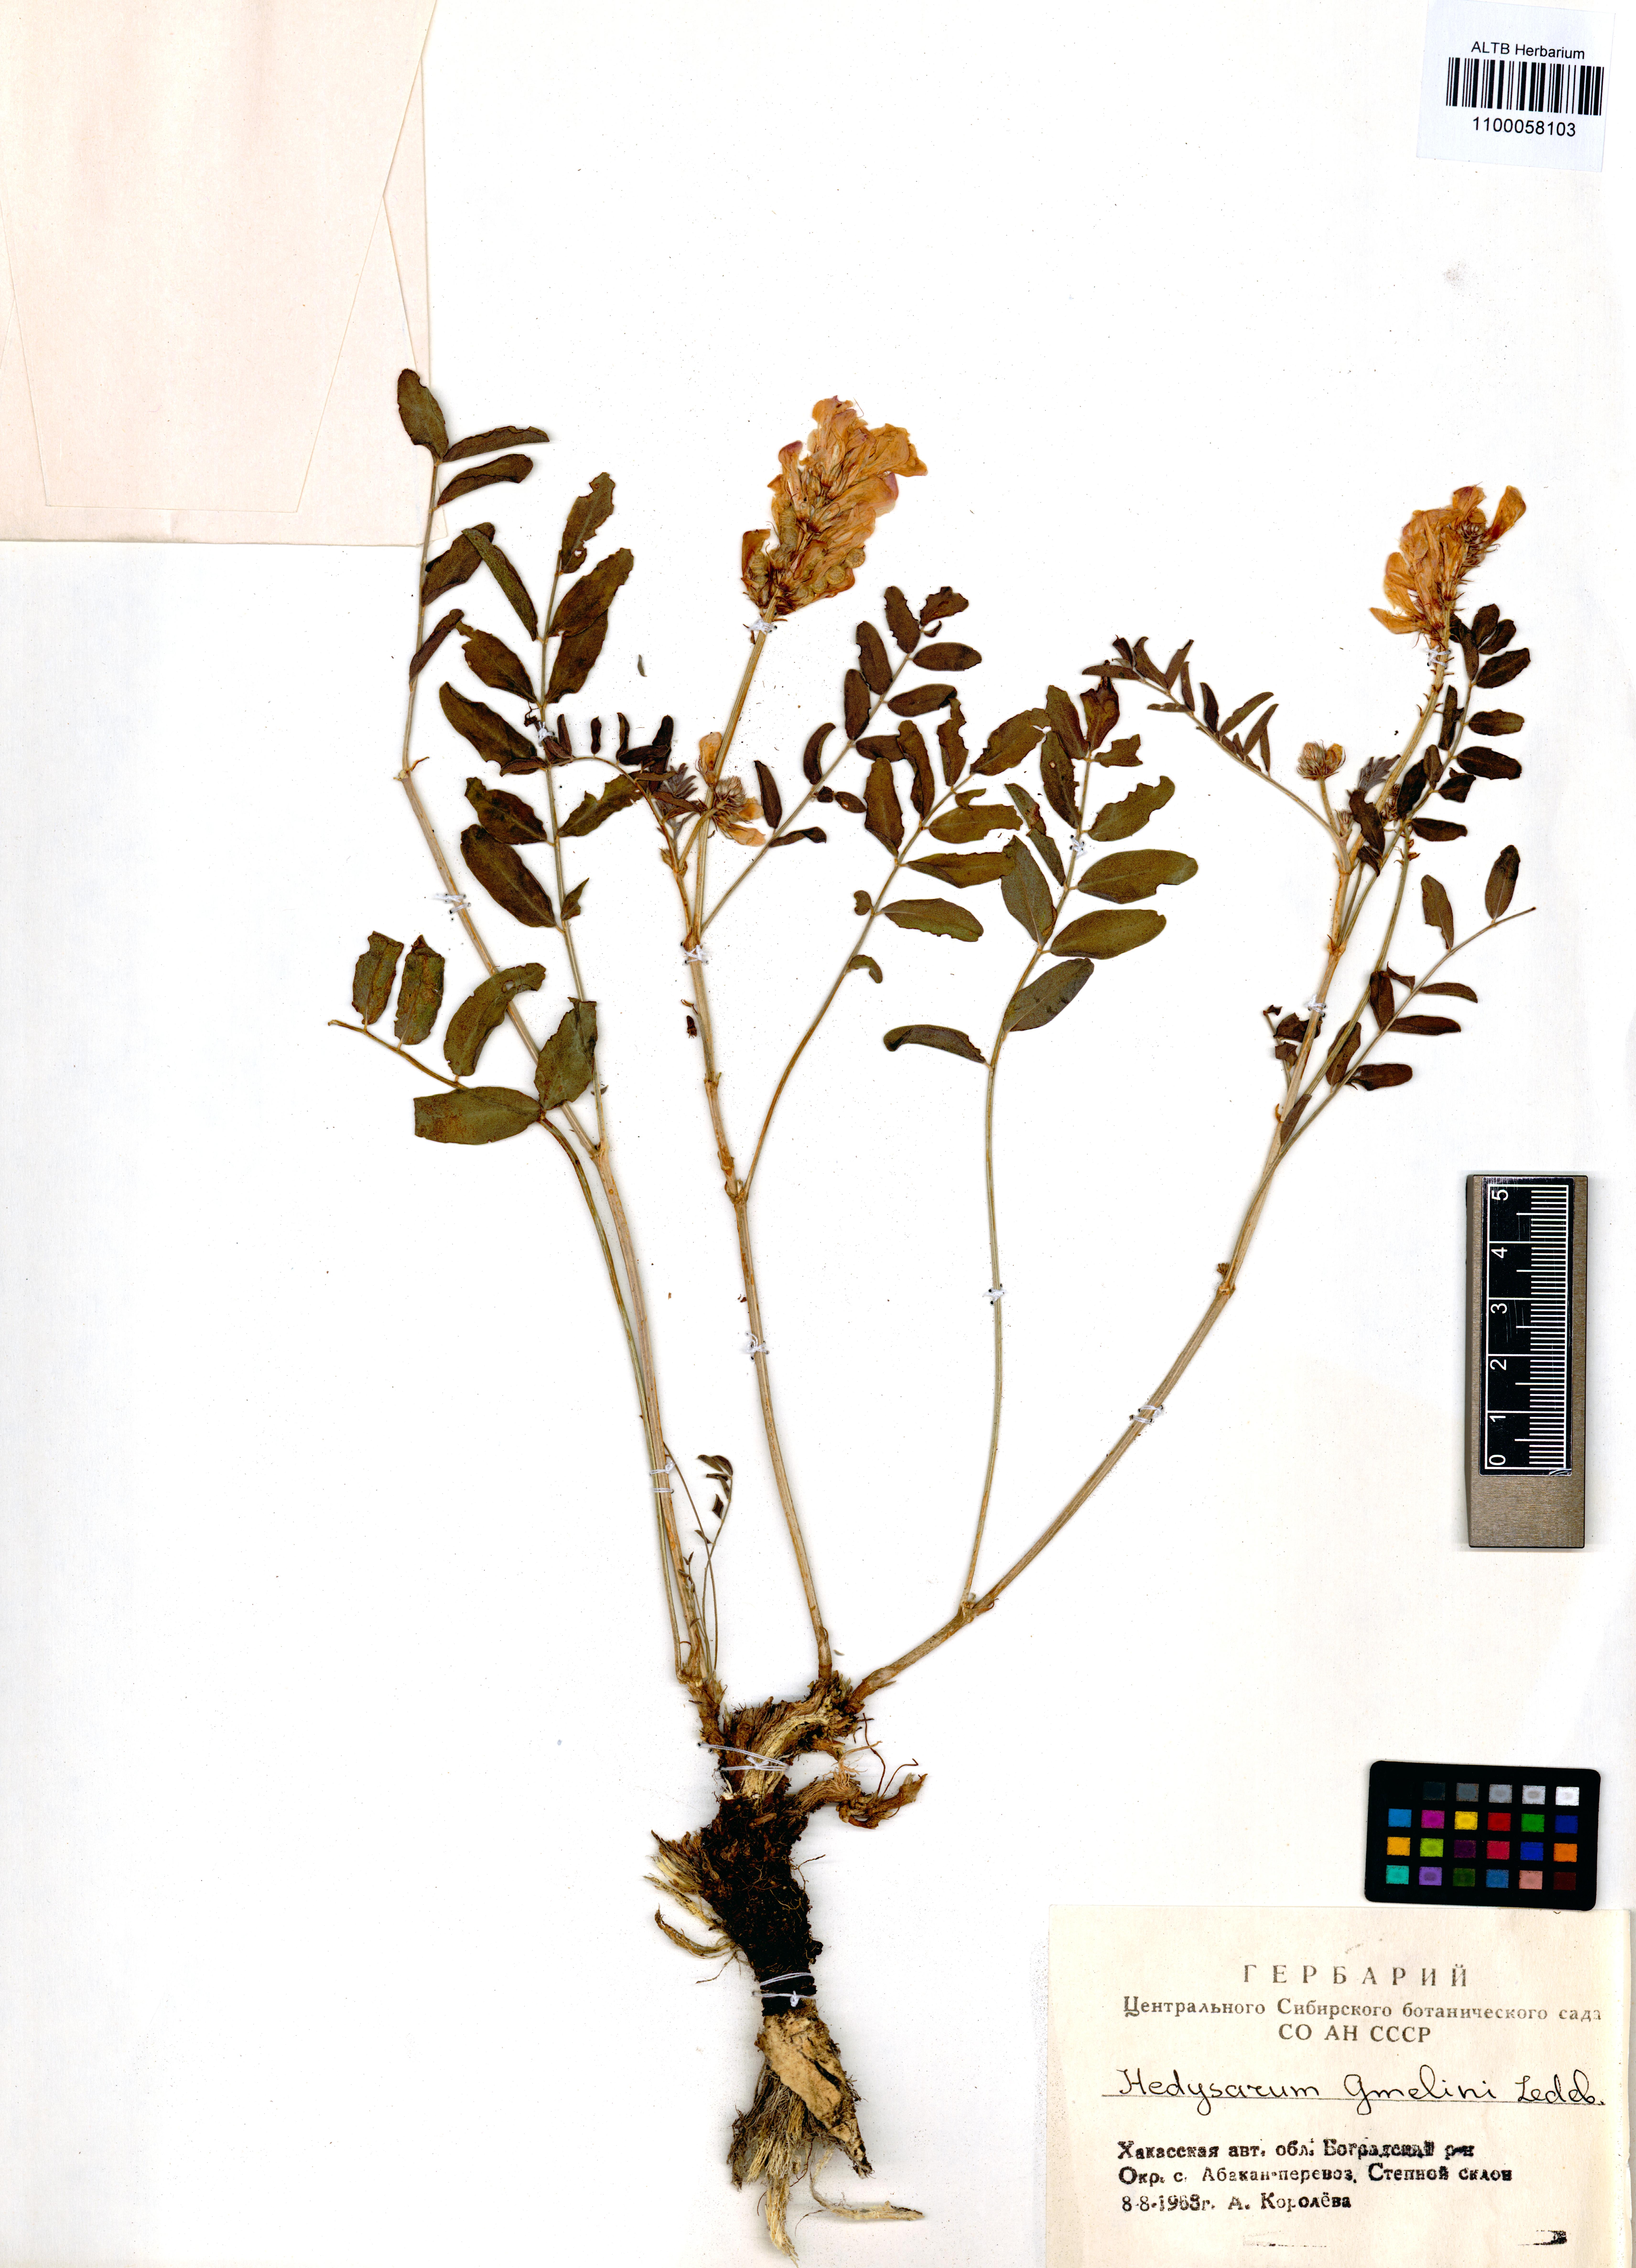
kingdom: Plantae
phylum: Tracheophyta
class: Magnoliopsida
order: Fabales
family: Fabaceae
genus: Hedysarum
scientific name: Hedysarum gmelinii
